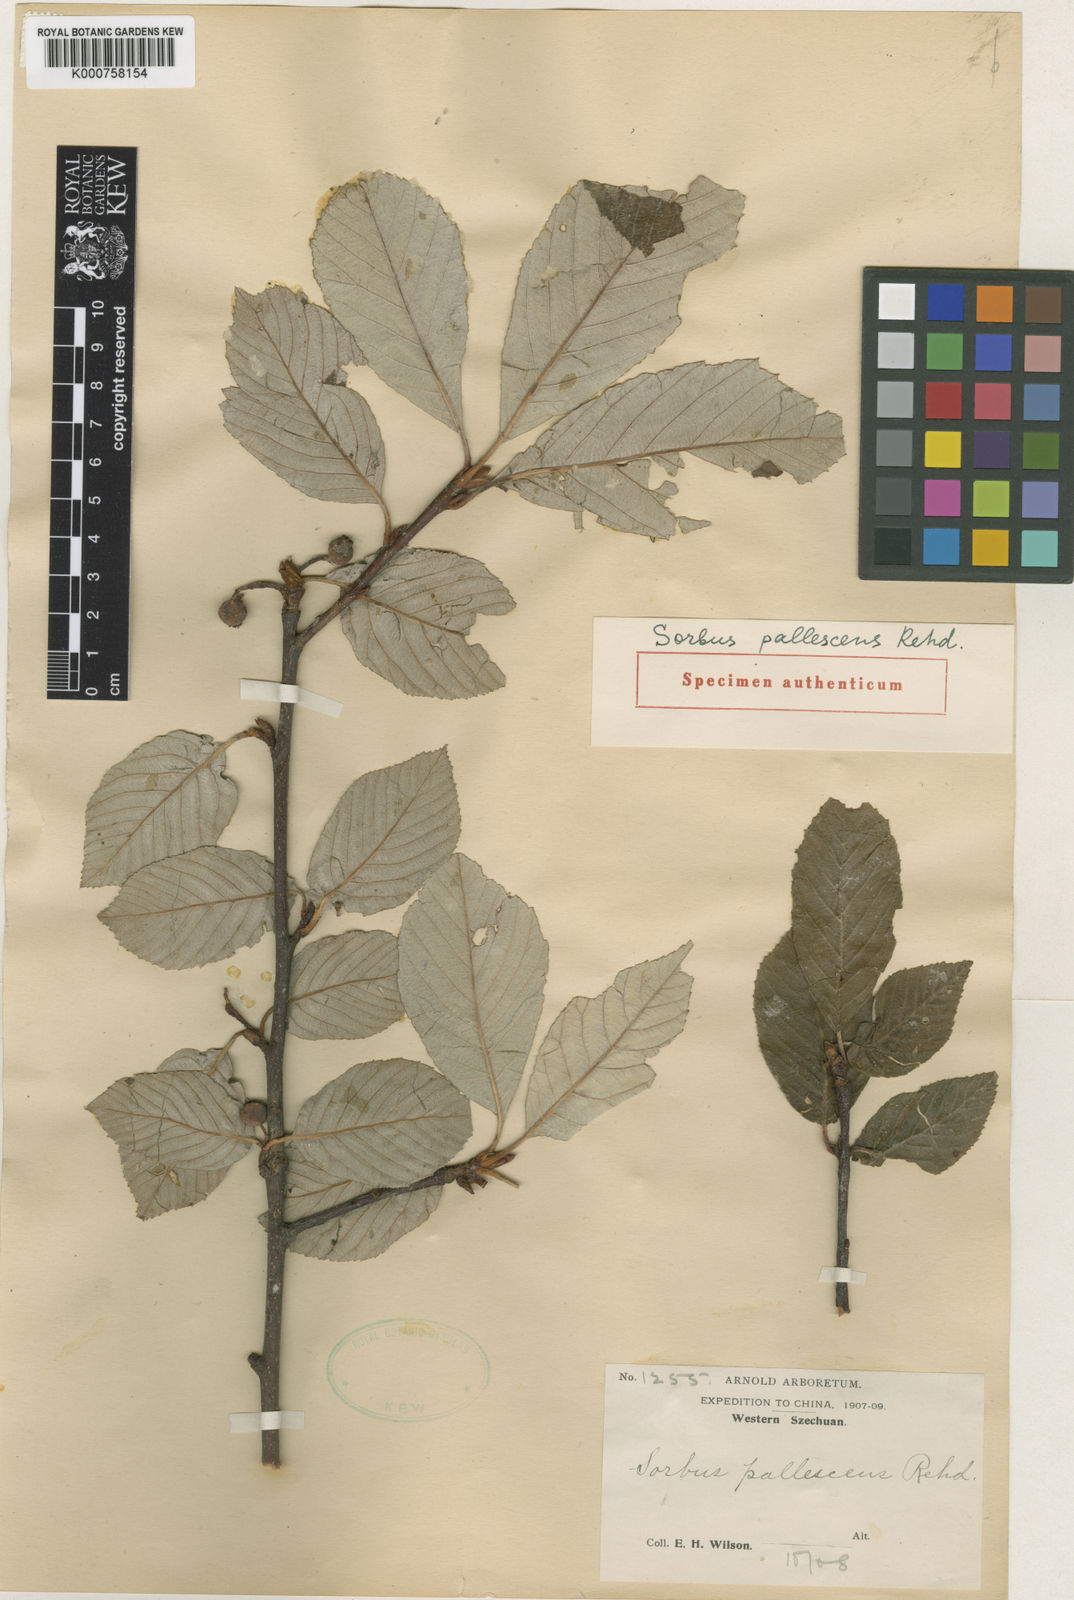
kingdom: Plantae
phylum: Tracheophyta
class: Magnoliopsida
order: Rosales
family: Rosaceae
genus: Sorbus
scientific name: Sorbus pallescens
